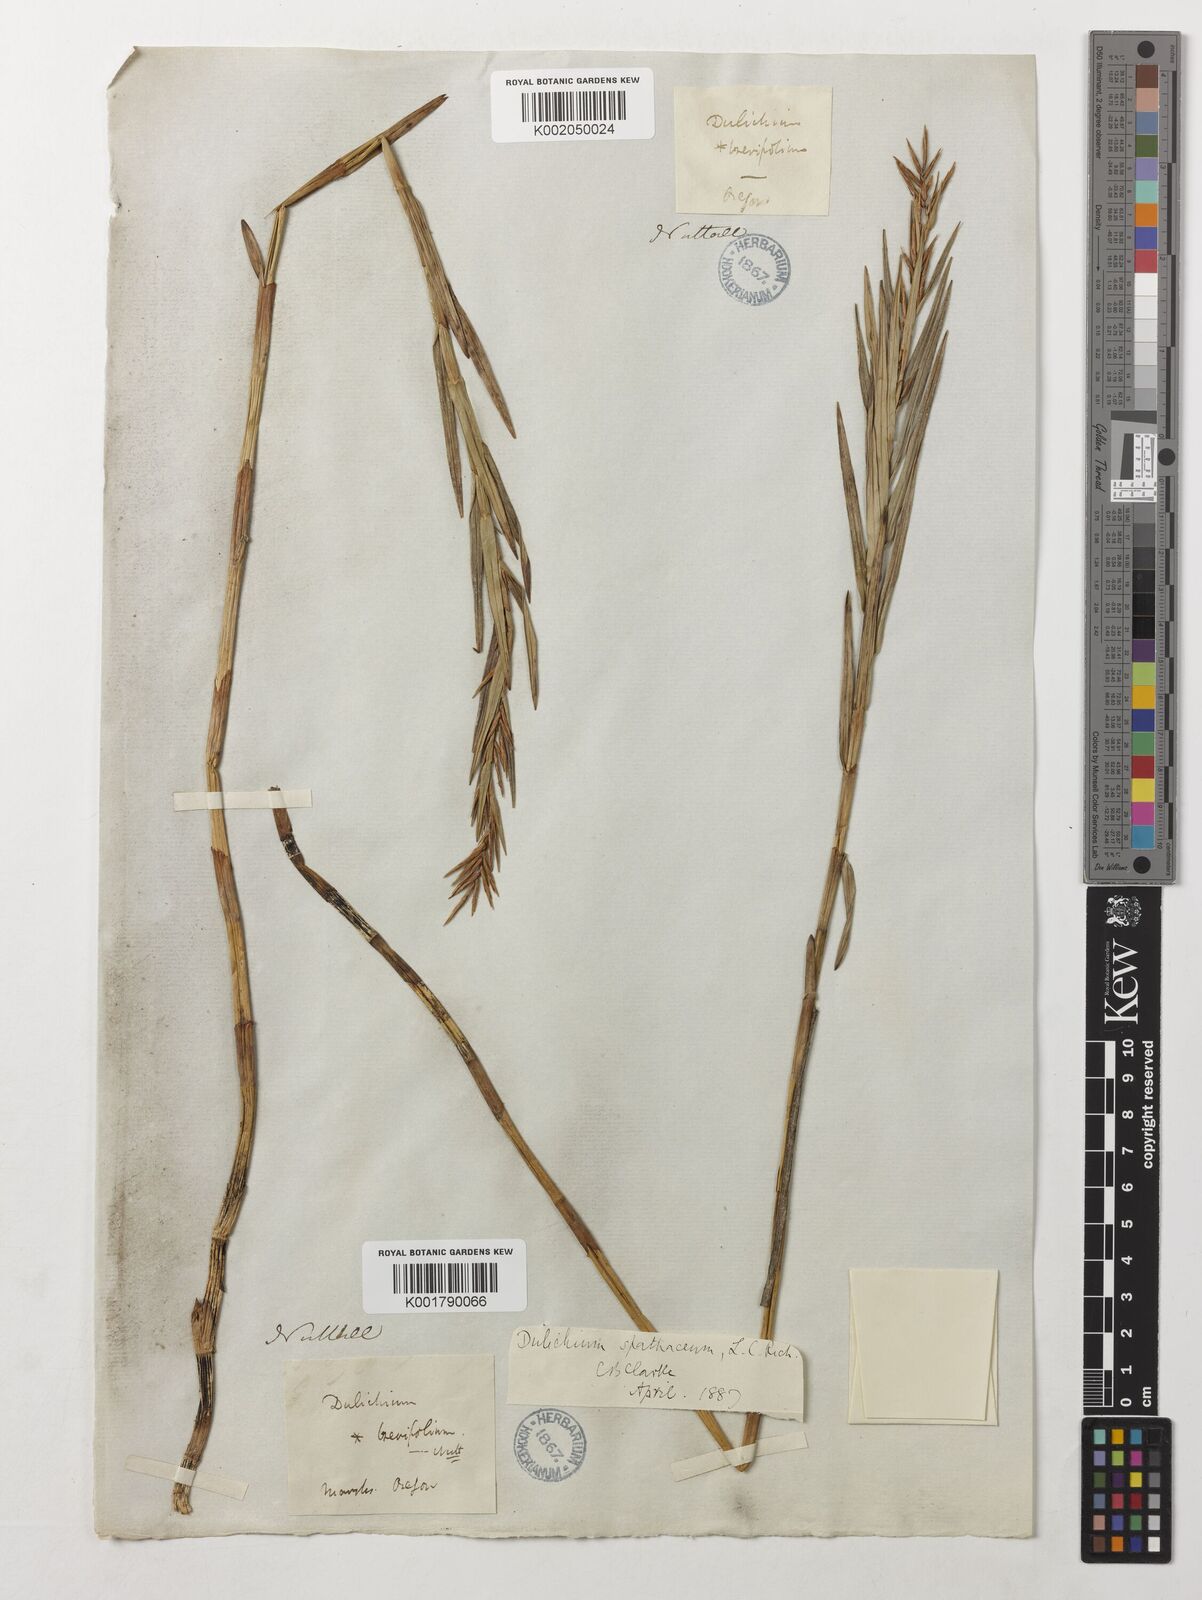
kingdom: Plantae
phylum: Tracheophyta
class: Liliopsida
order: Poales
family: Cyperaceae
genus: Dulichium
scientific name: Dulichium arundinaceum
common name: Three-way sedge
